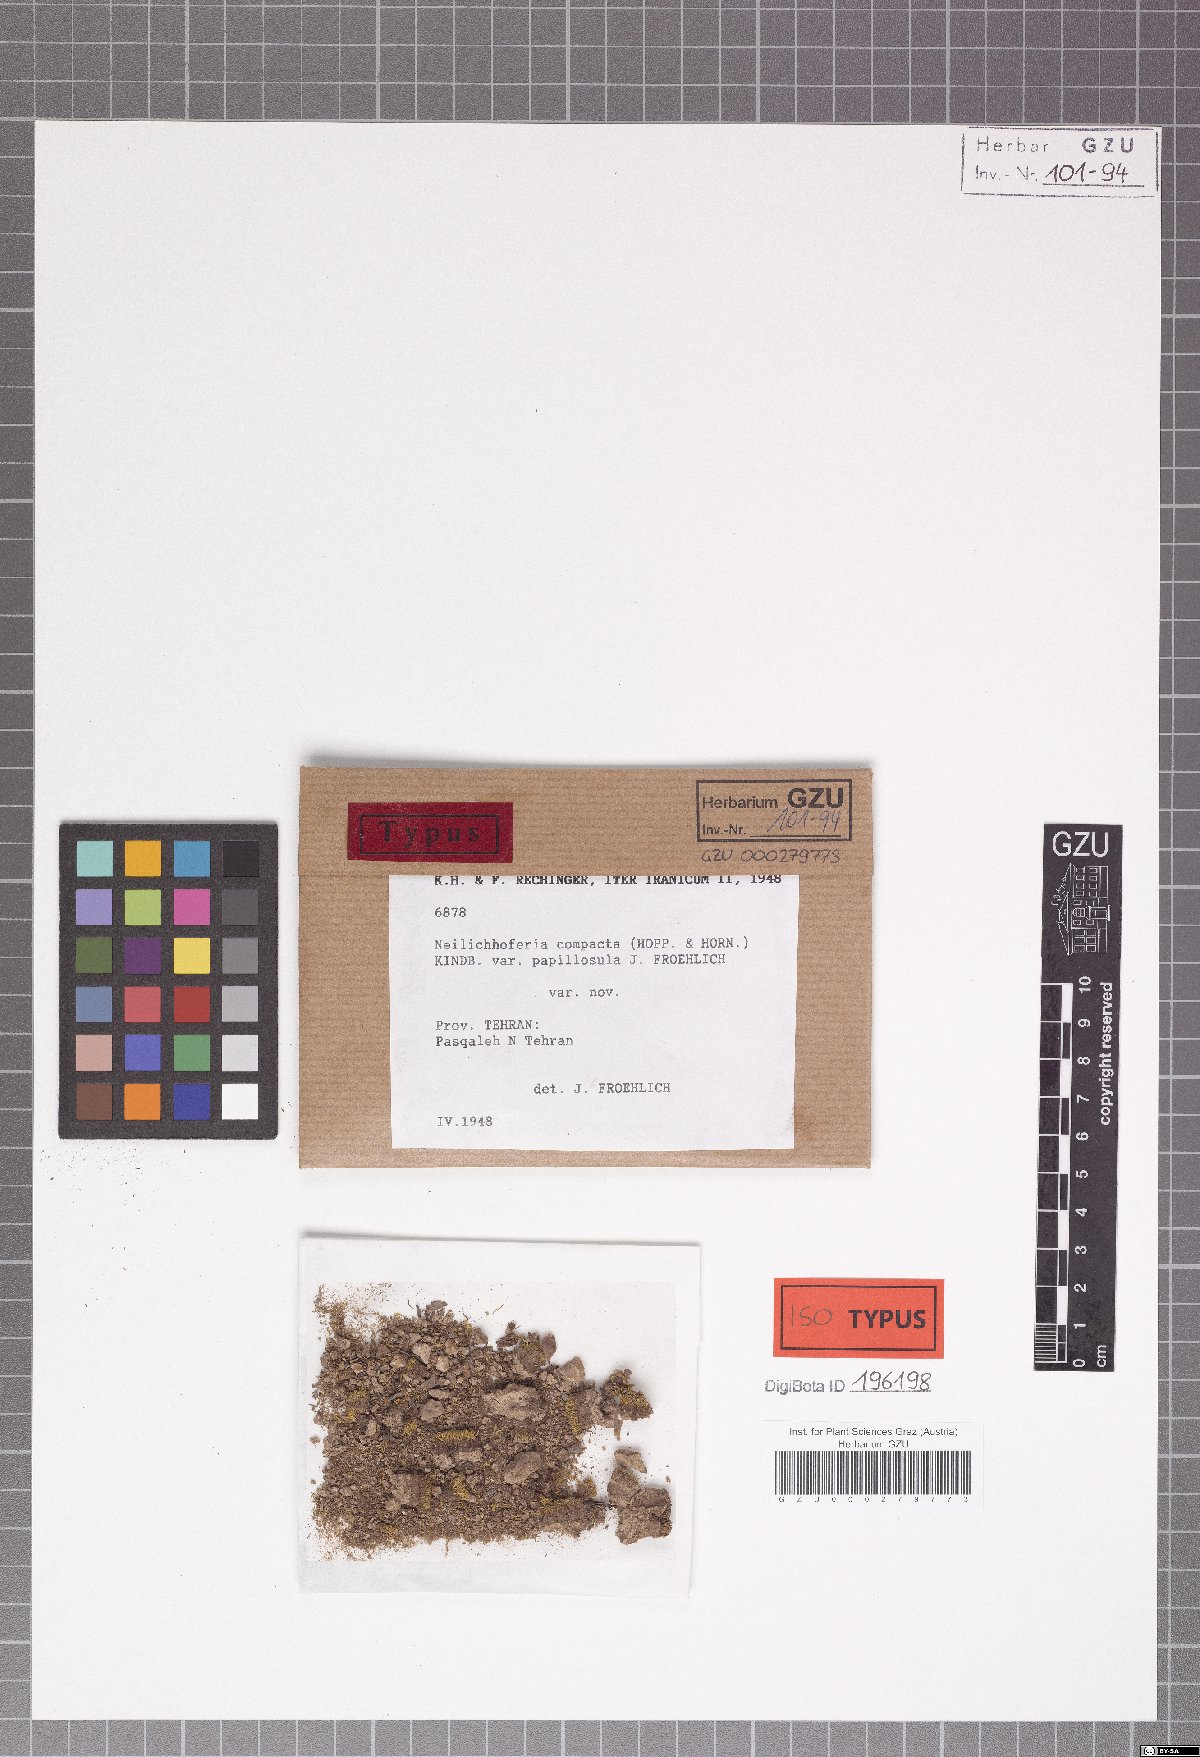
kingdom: Plantae
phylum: Bryophyta
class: Bryopsida
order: Bryales
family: Mniaceae
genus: Mielichhoferia
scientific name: Mielichhoferia mielichhoferiana
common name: Alpine copper-moss
